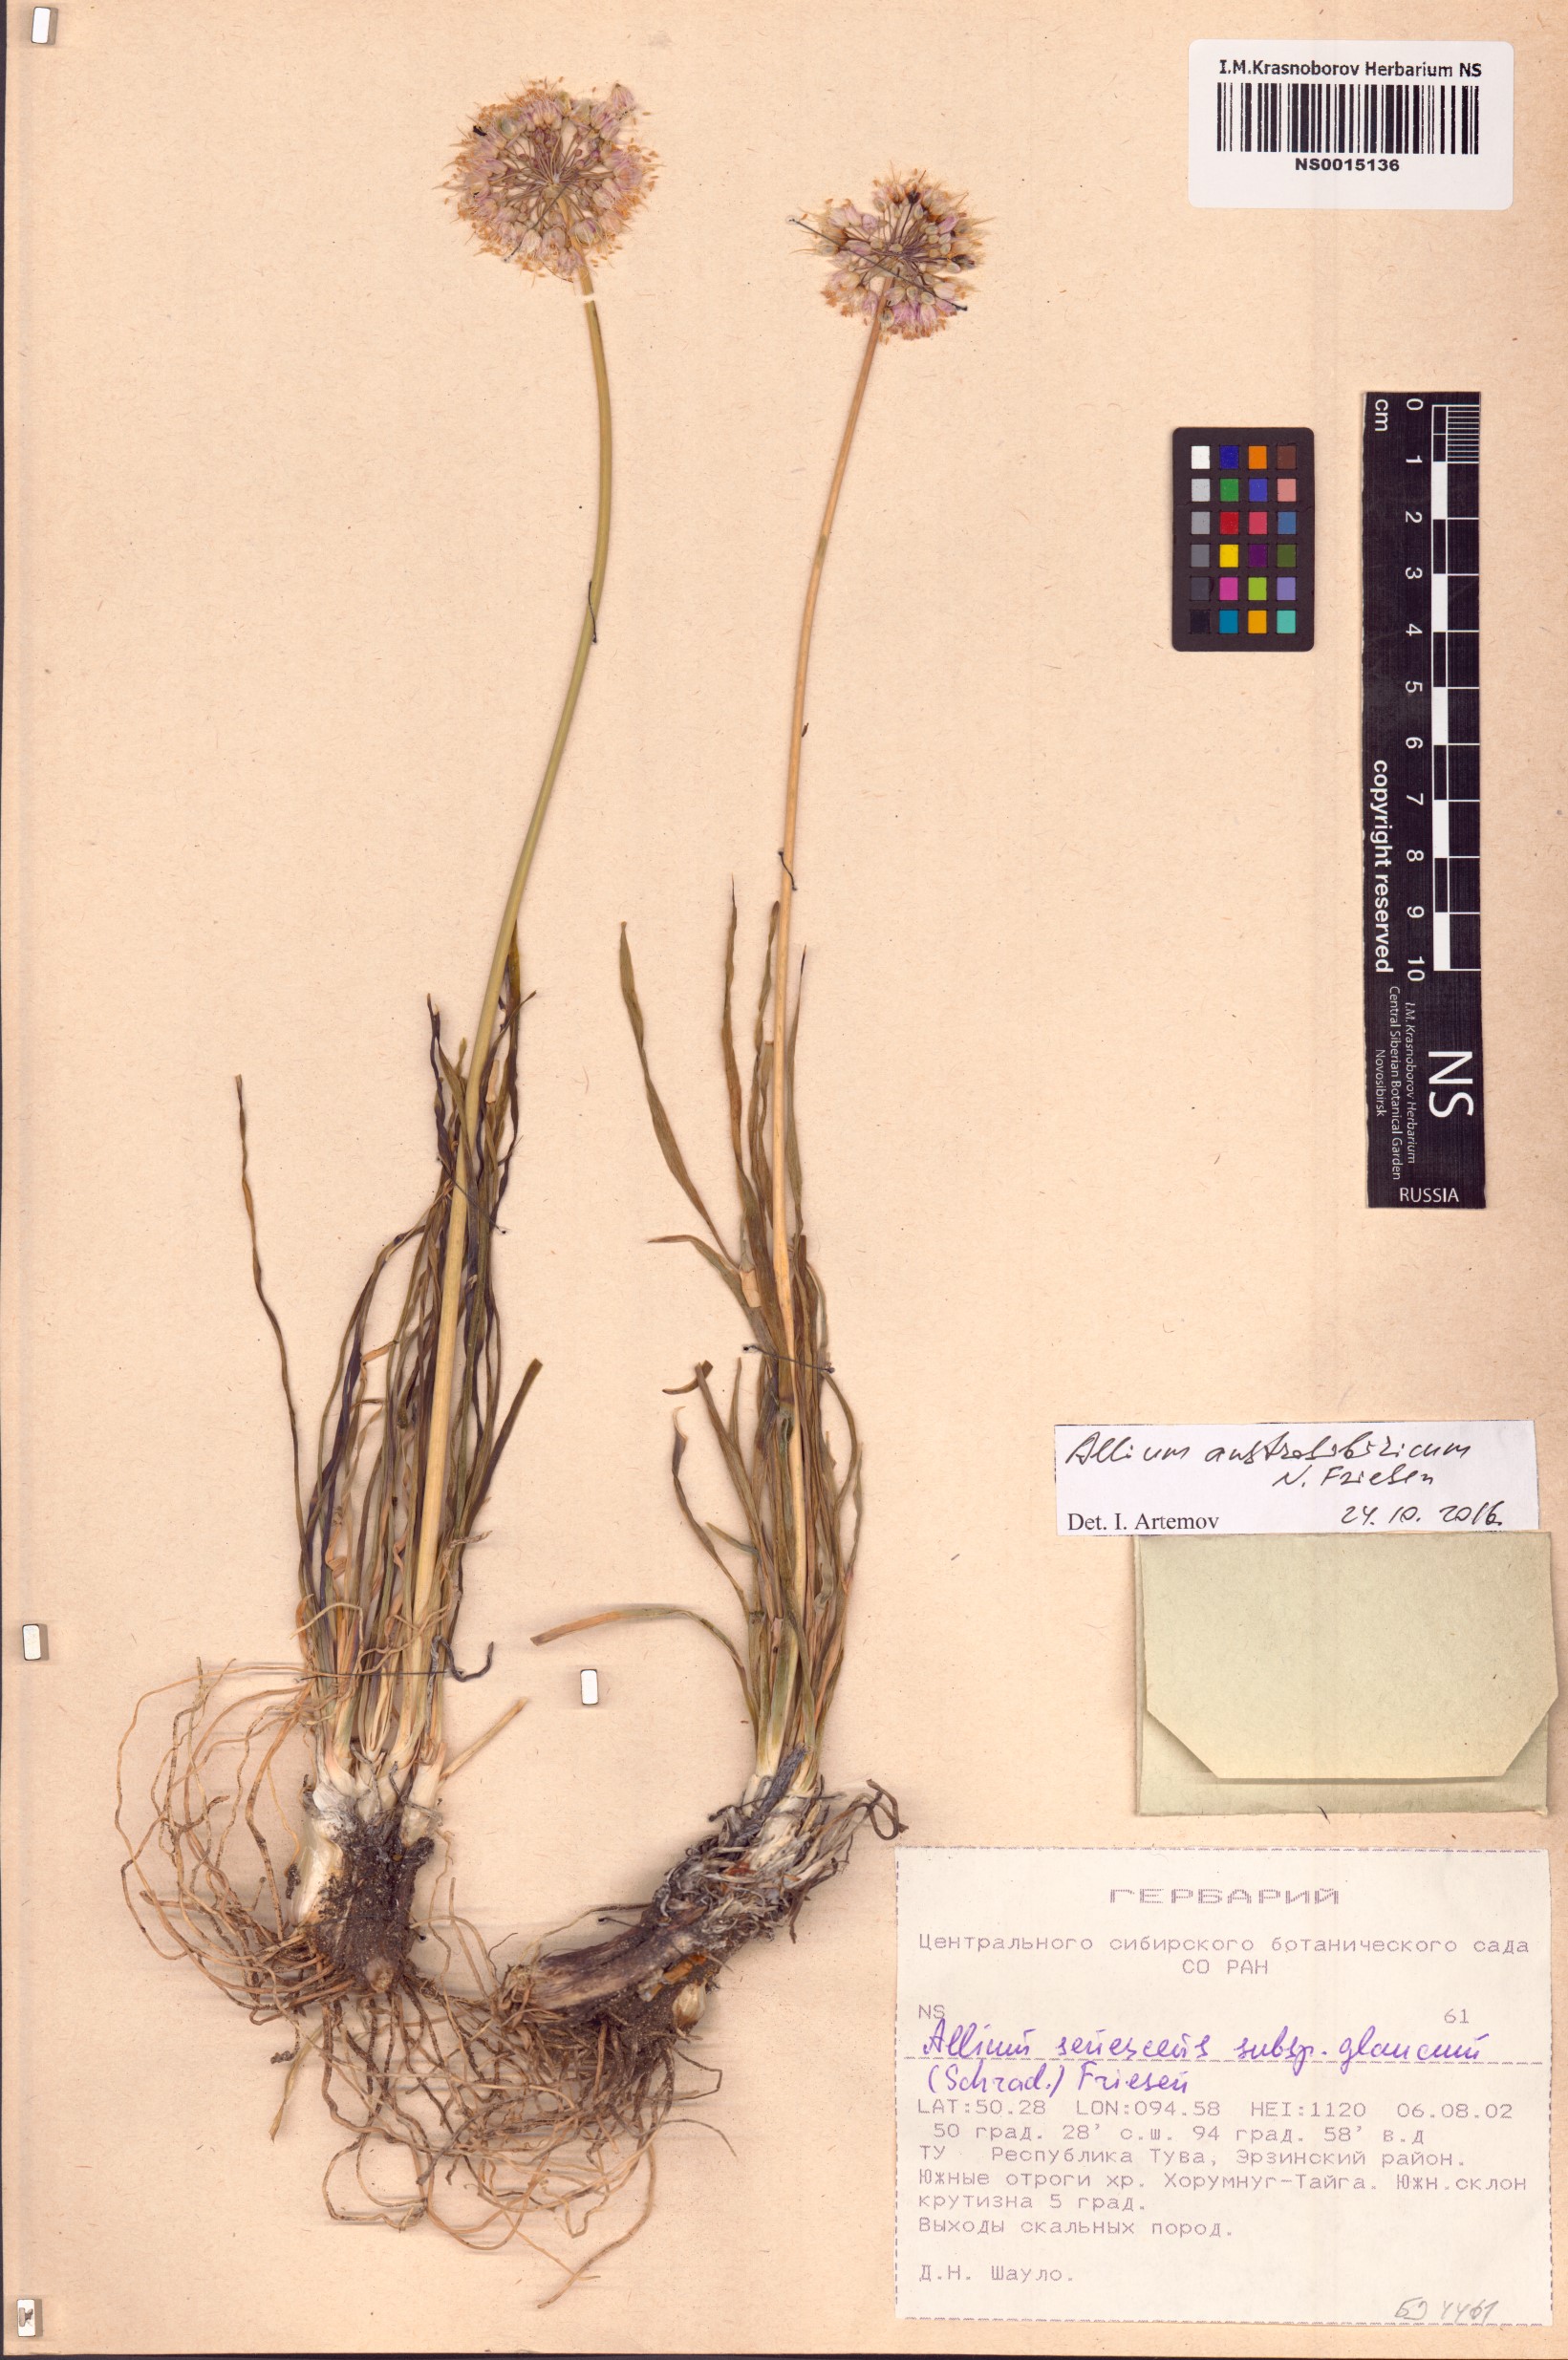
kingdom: Plantae
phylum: Tracheophyta
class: Liliopsida
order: Asparagales
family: Amaryllidaceae
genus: Allium
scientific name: Allium austrosibiricum
